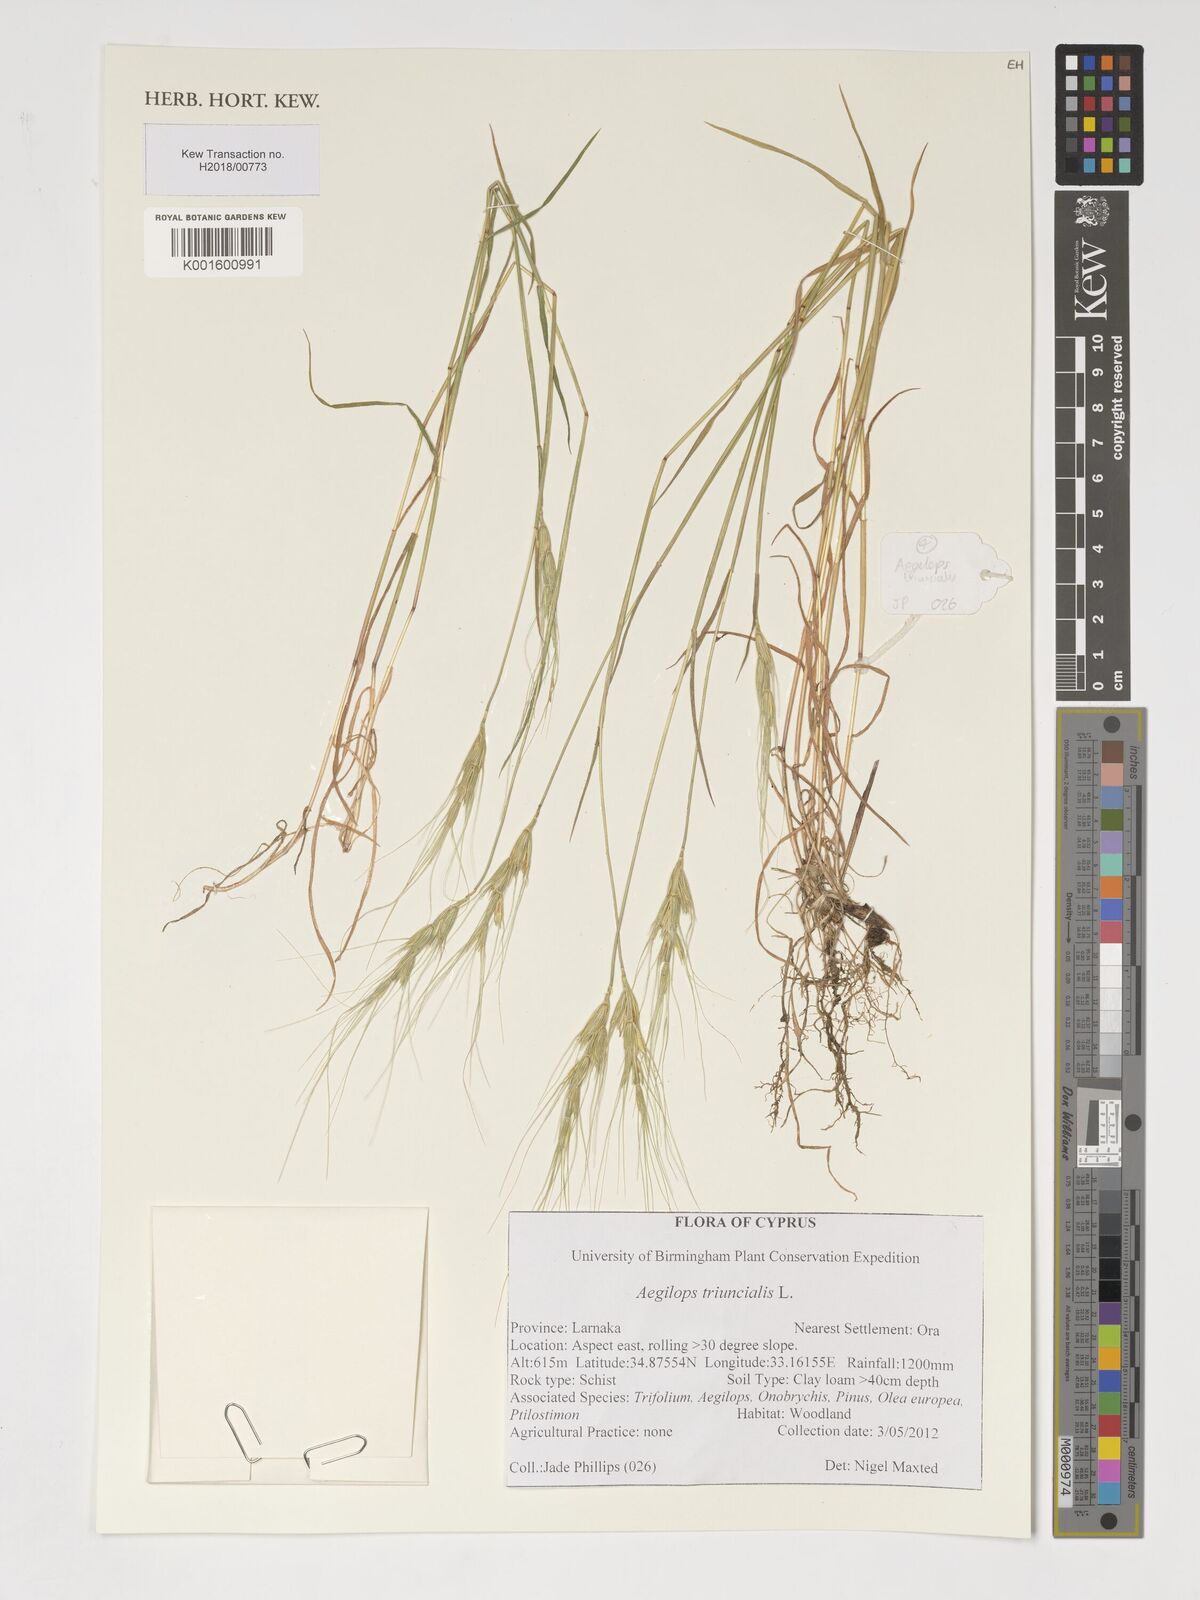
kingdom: Plantae
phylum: Tracheophyta
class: Liliopsida
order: Poales
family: Poaceae
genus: Aegilops
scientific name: Aegilops triuncialis
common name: Barb goat grass
